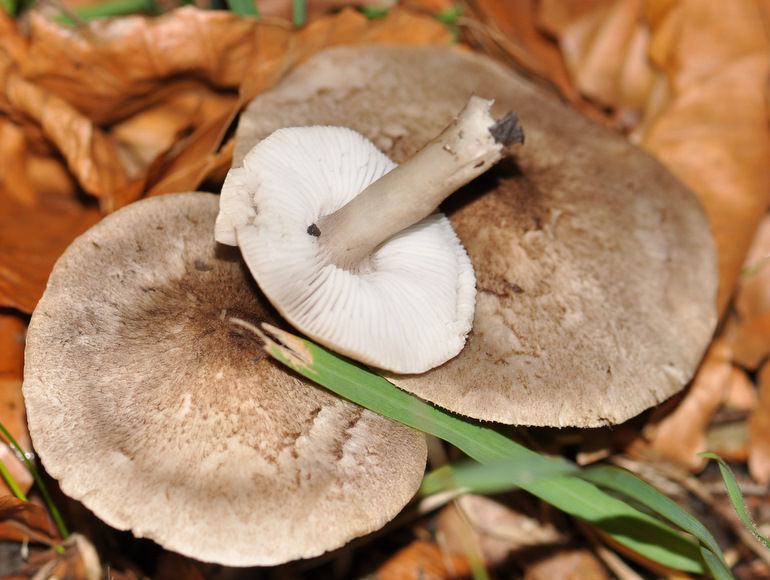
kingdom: Fungi
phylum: Basidiomycota
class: Agaricomycetes
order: Agaricales
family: Tricholomataceae
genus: Tricholoma
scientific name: Tricholoma scalpturatum
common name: gulplettet ridderhat
